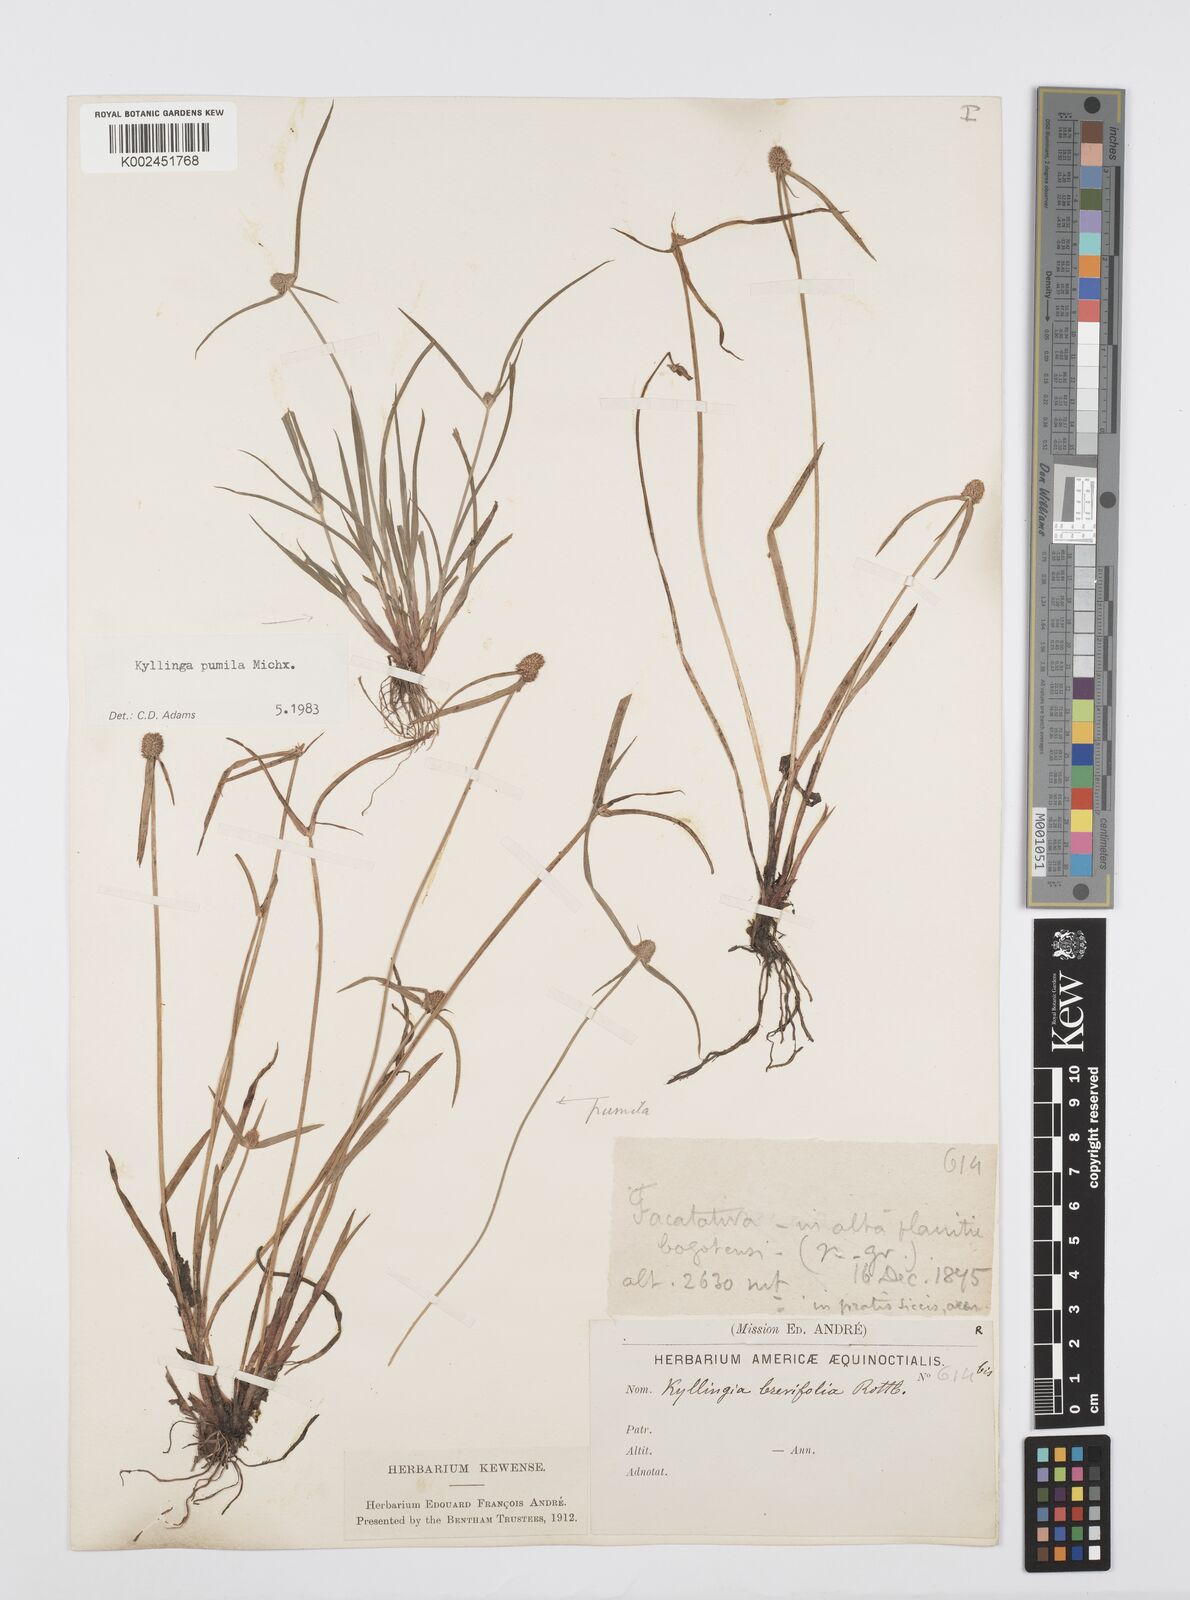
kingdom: Plantae
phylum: Tracheophyta
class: Liliopsida
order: Poales
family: Cyperaceae
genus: Cyperus
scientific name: Cyperus
